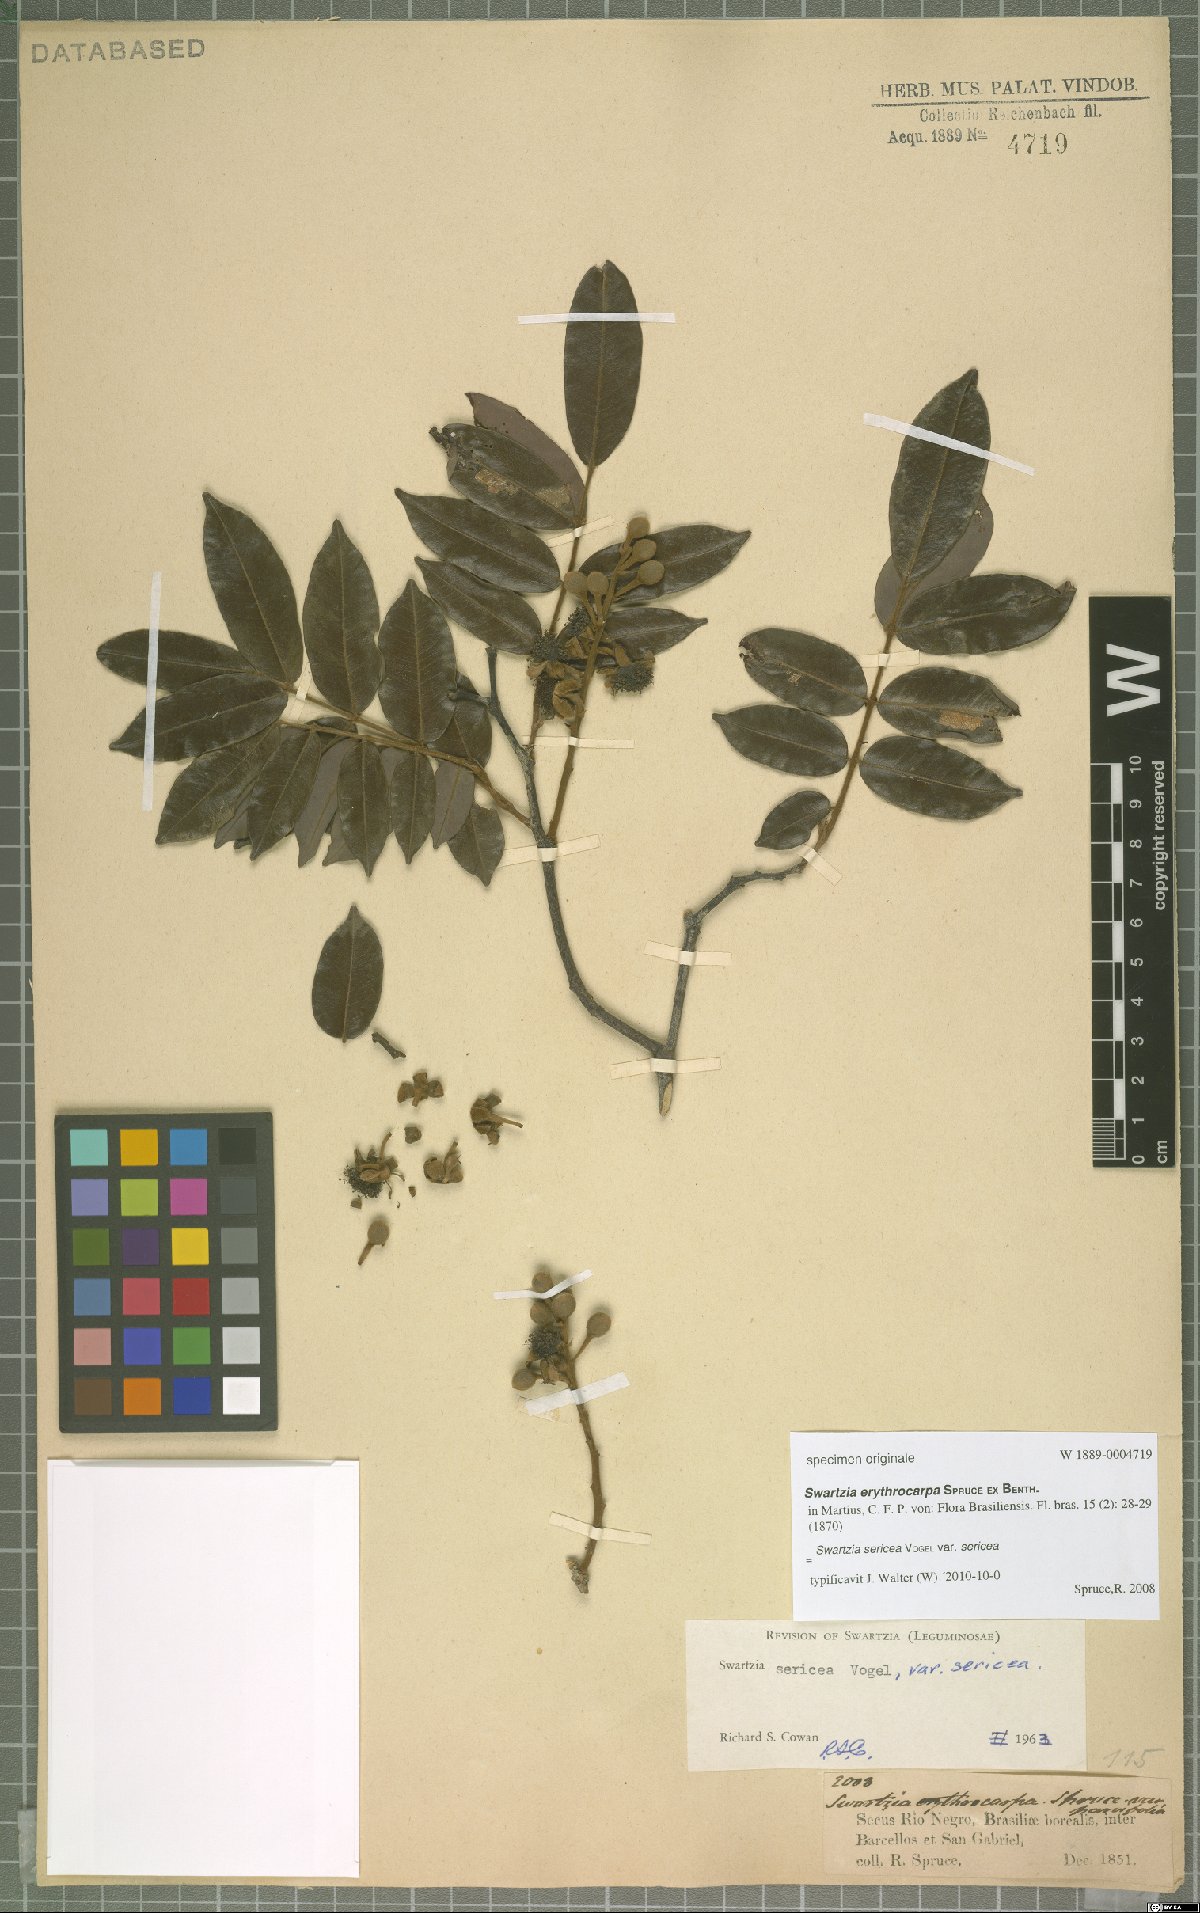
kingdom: Plantae
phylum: Tracheophyta
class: Magnoliopsida
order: Fabales
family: Fabaceae
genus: Swartzia
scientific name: Swartzia sericea
